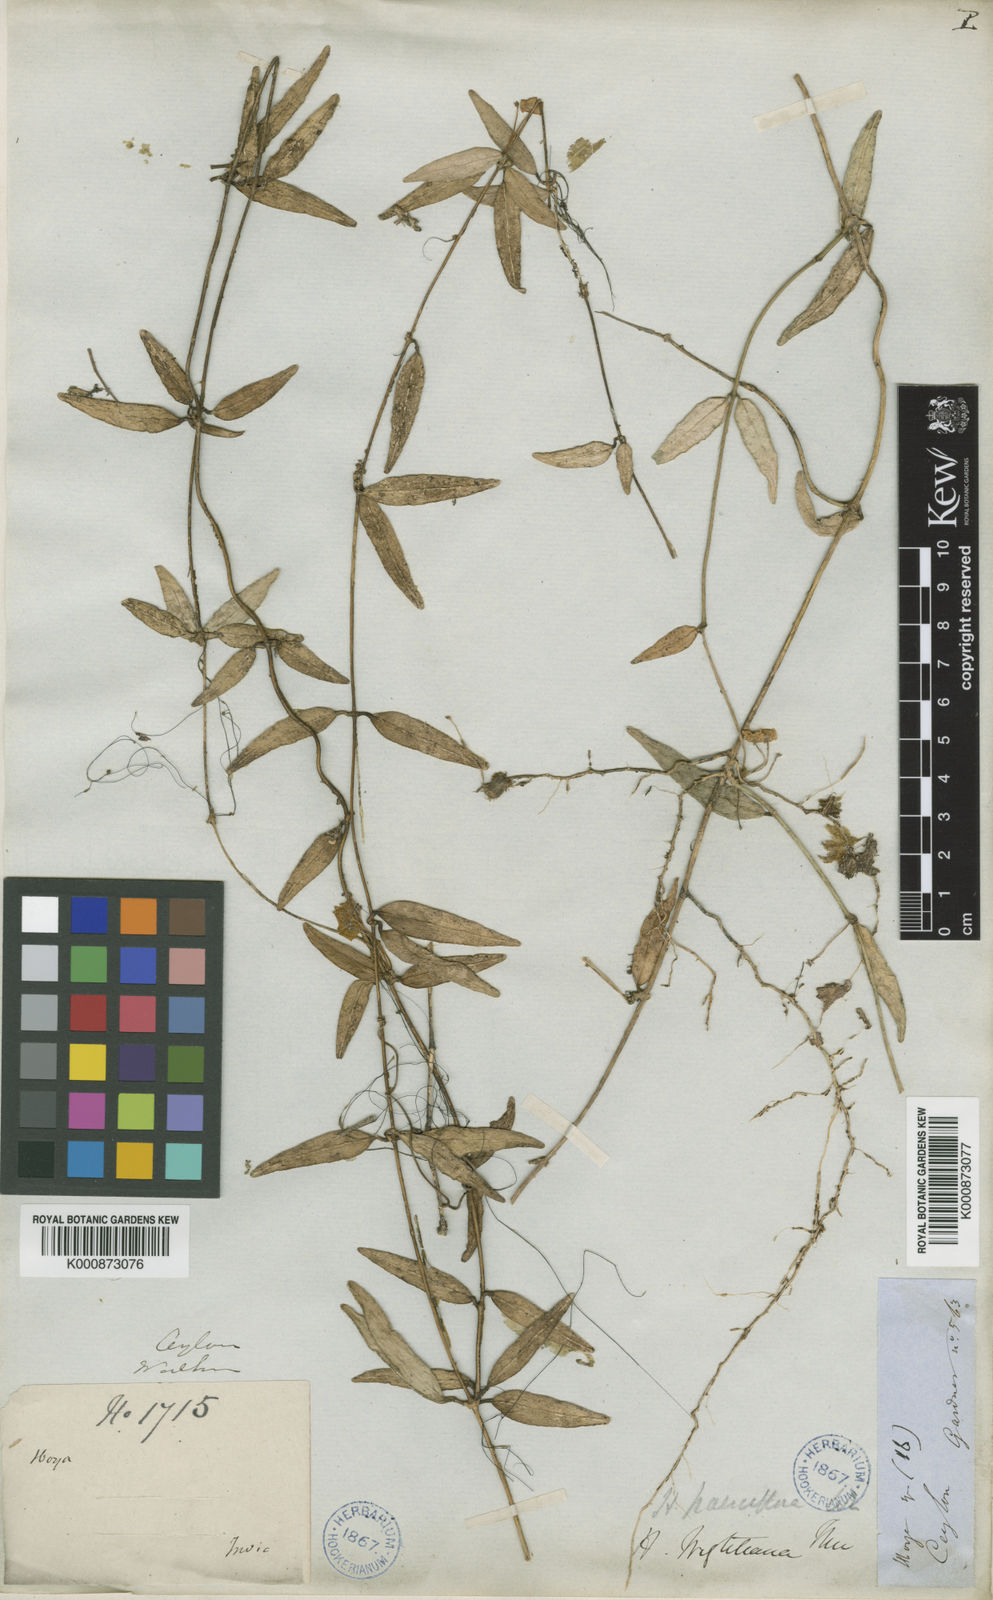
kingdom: Plantae
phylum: Tracheophyta
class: Magnoliopsida
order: Gentianales
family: Apocynaceae
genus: Hoya
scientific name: Hoya pauciflora
